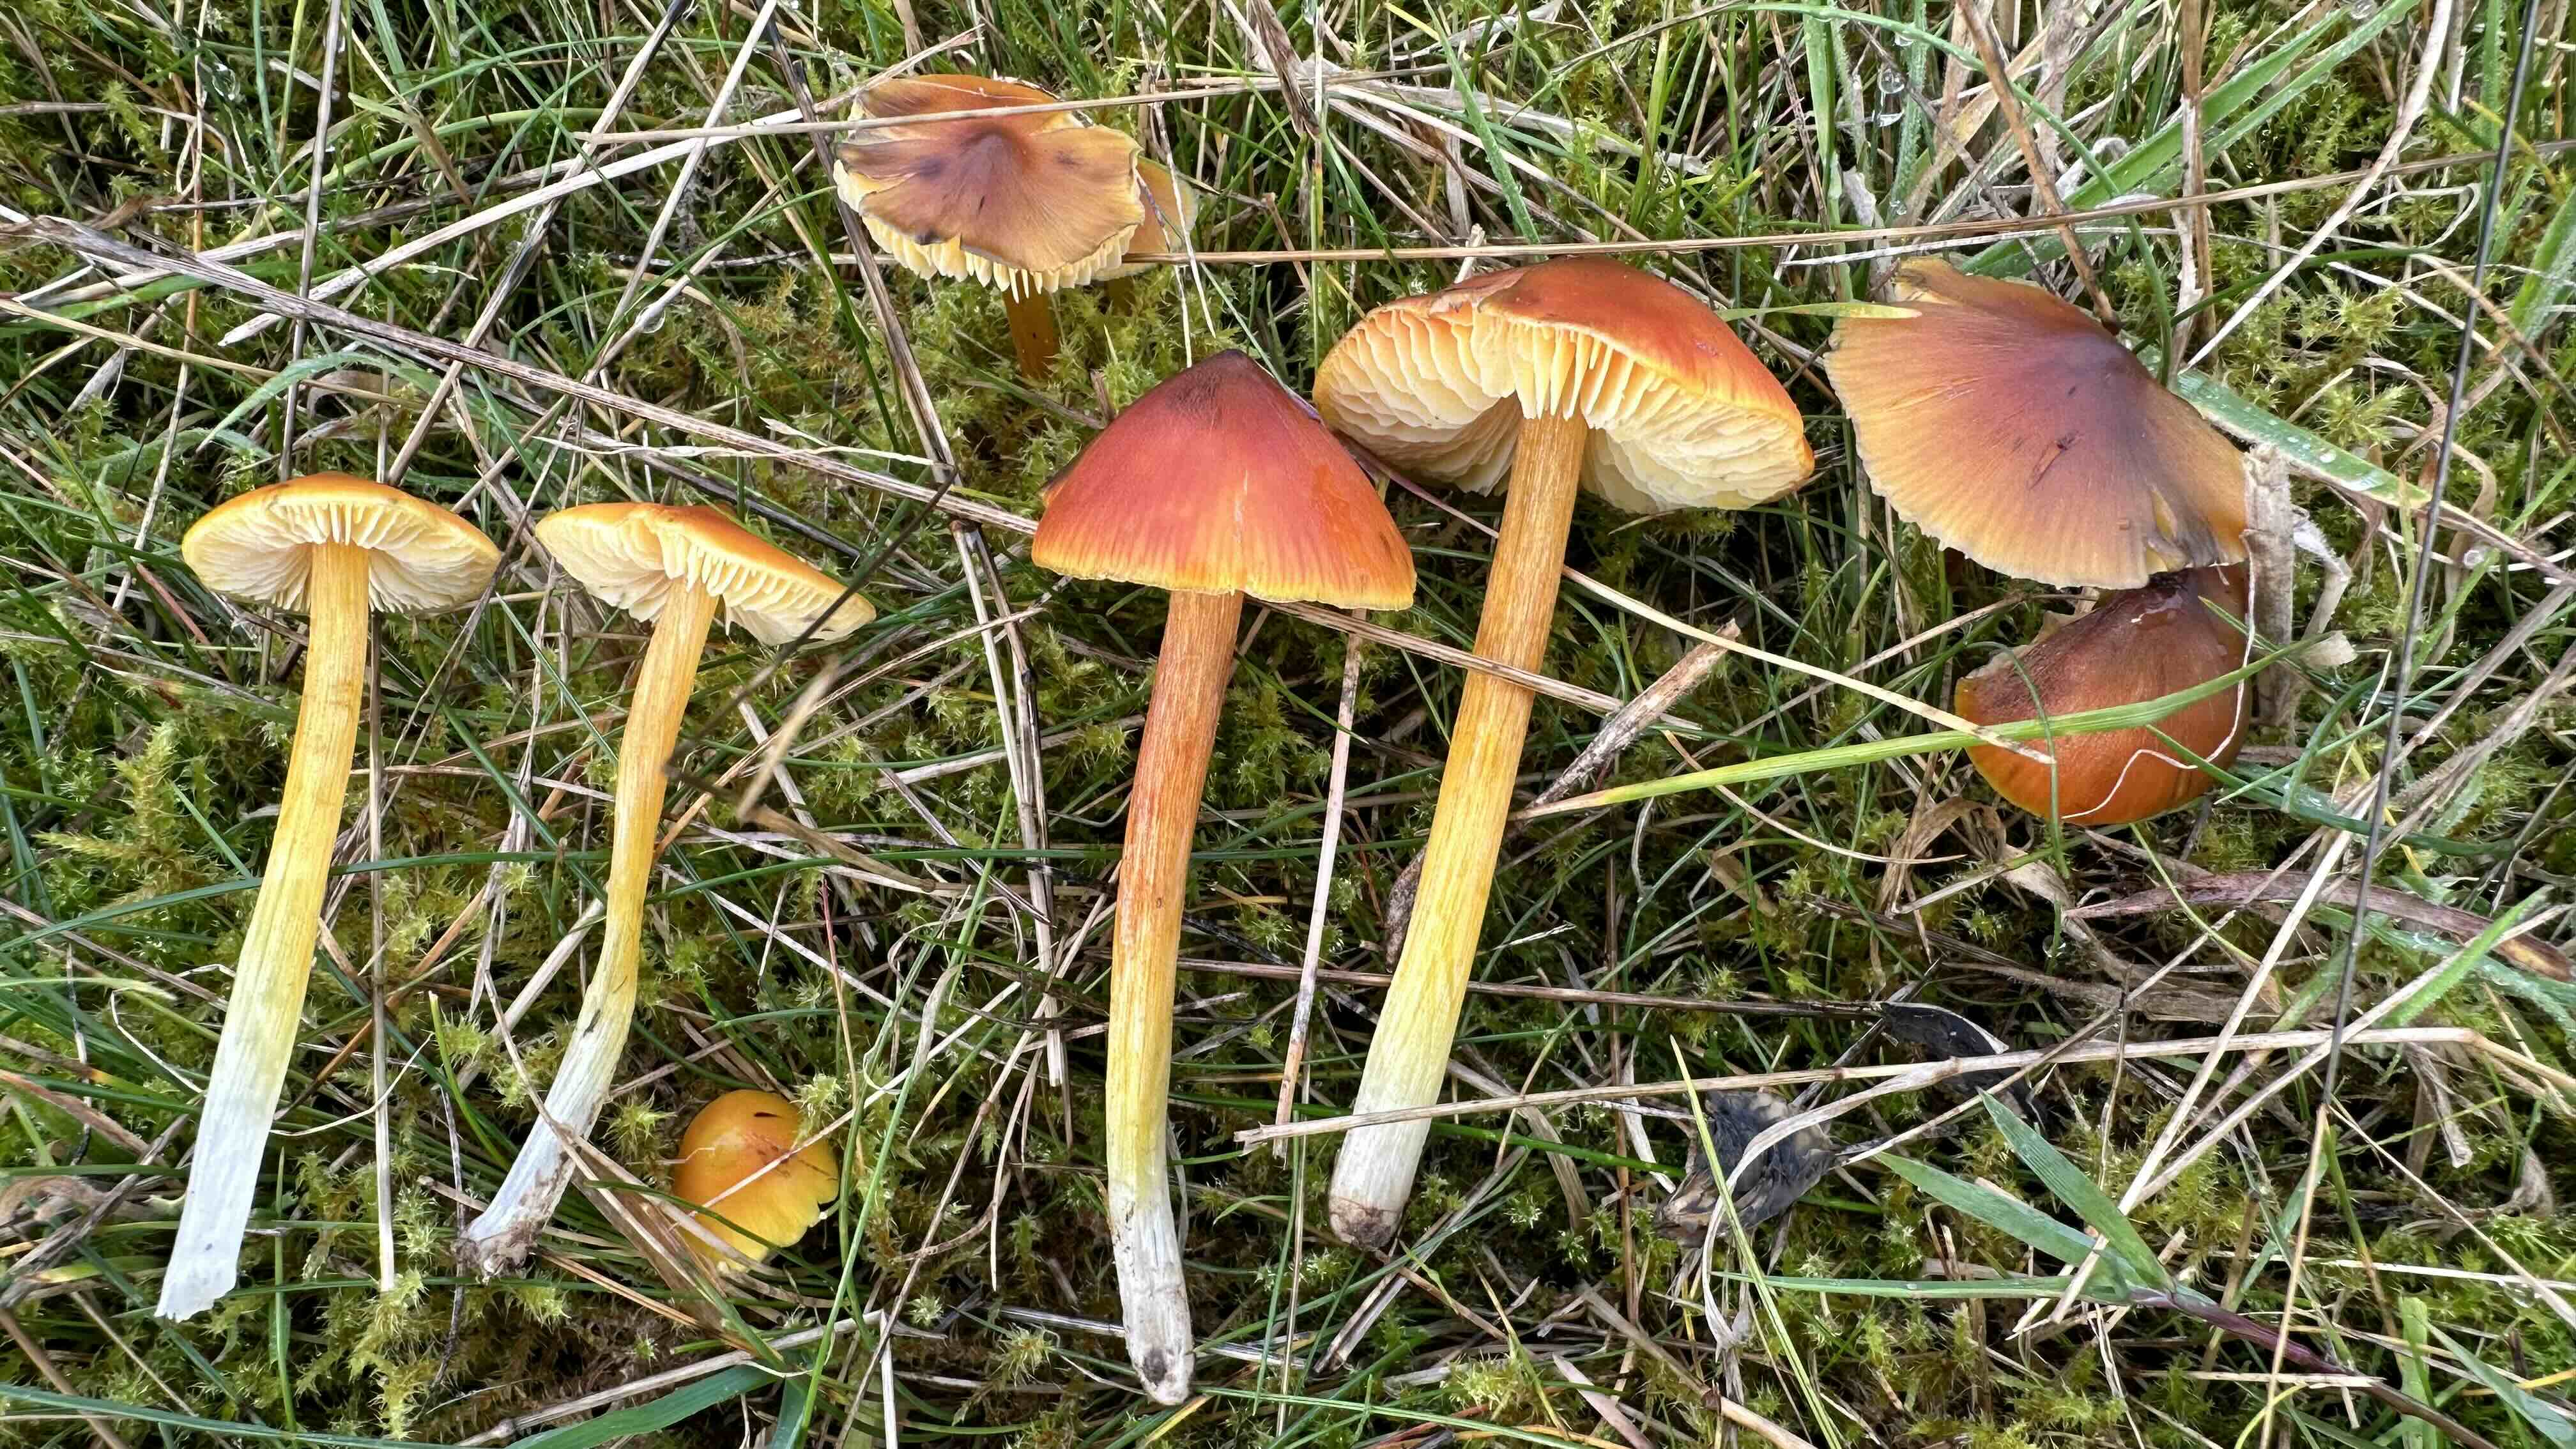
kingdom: Fungi
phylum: Basidiomycota
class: Agaricomycetes
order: Agaricales
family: Hygrophoraceae
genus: Hygrocybe
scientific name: Hygrocybe conica
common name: kegle-vokshat
